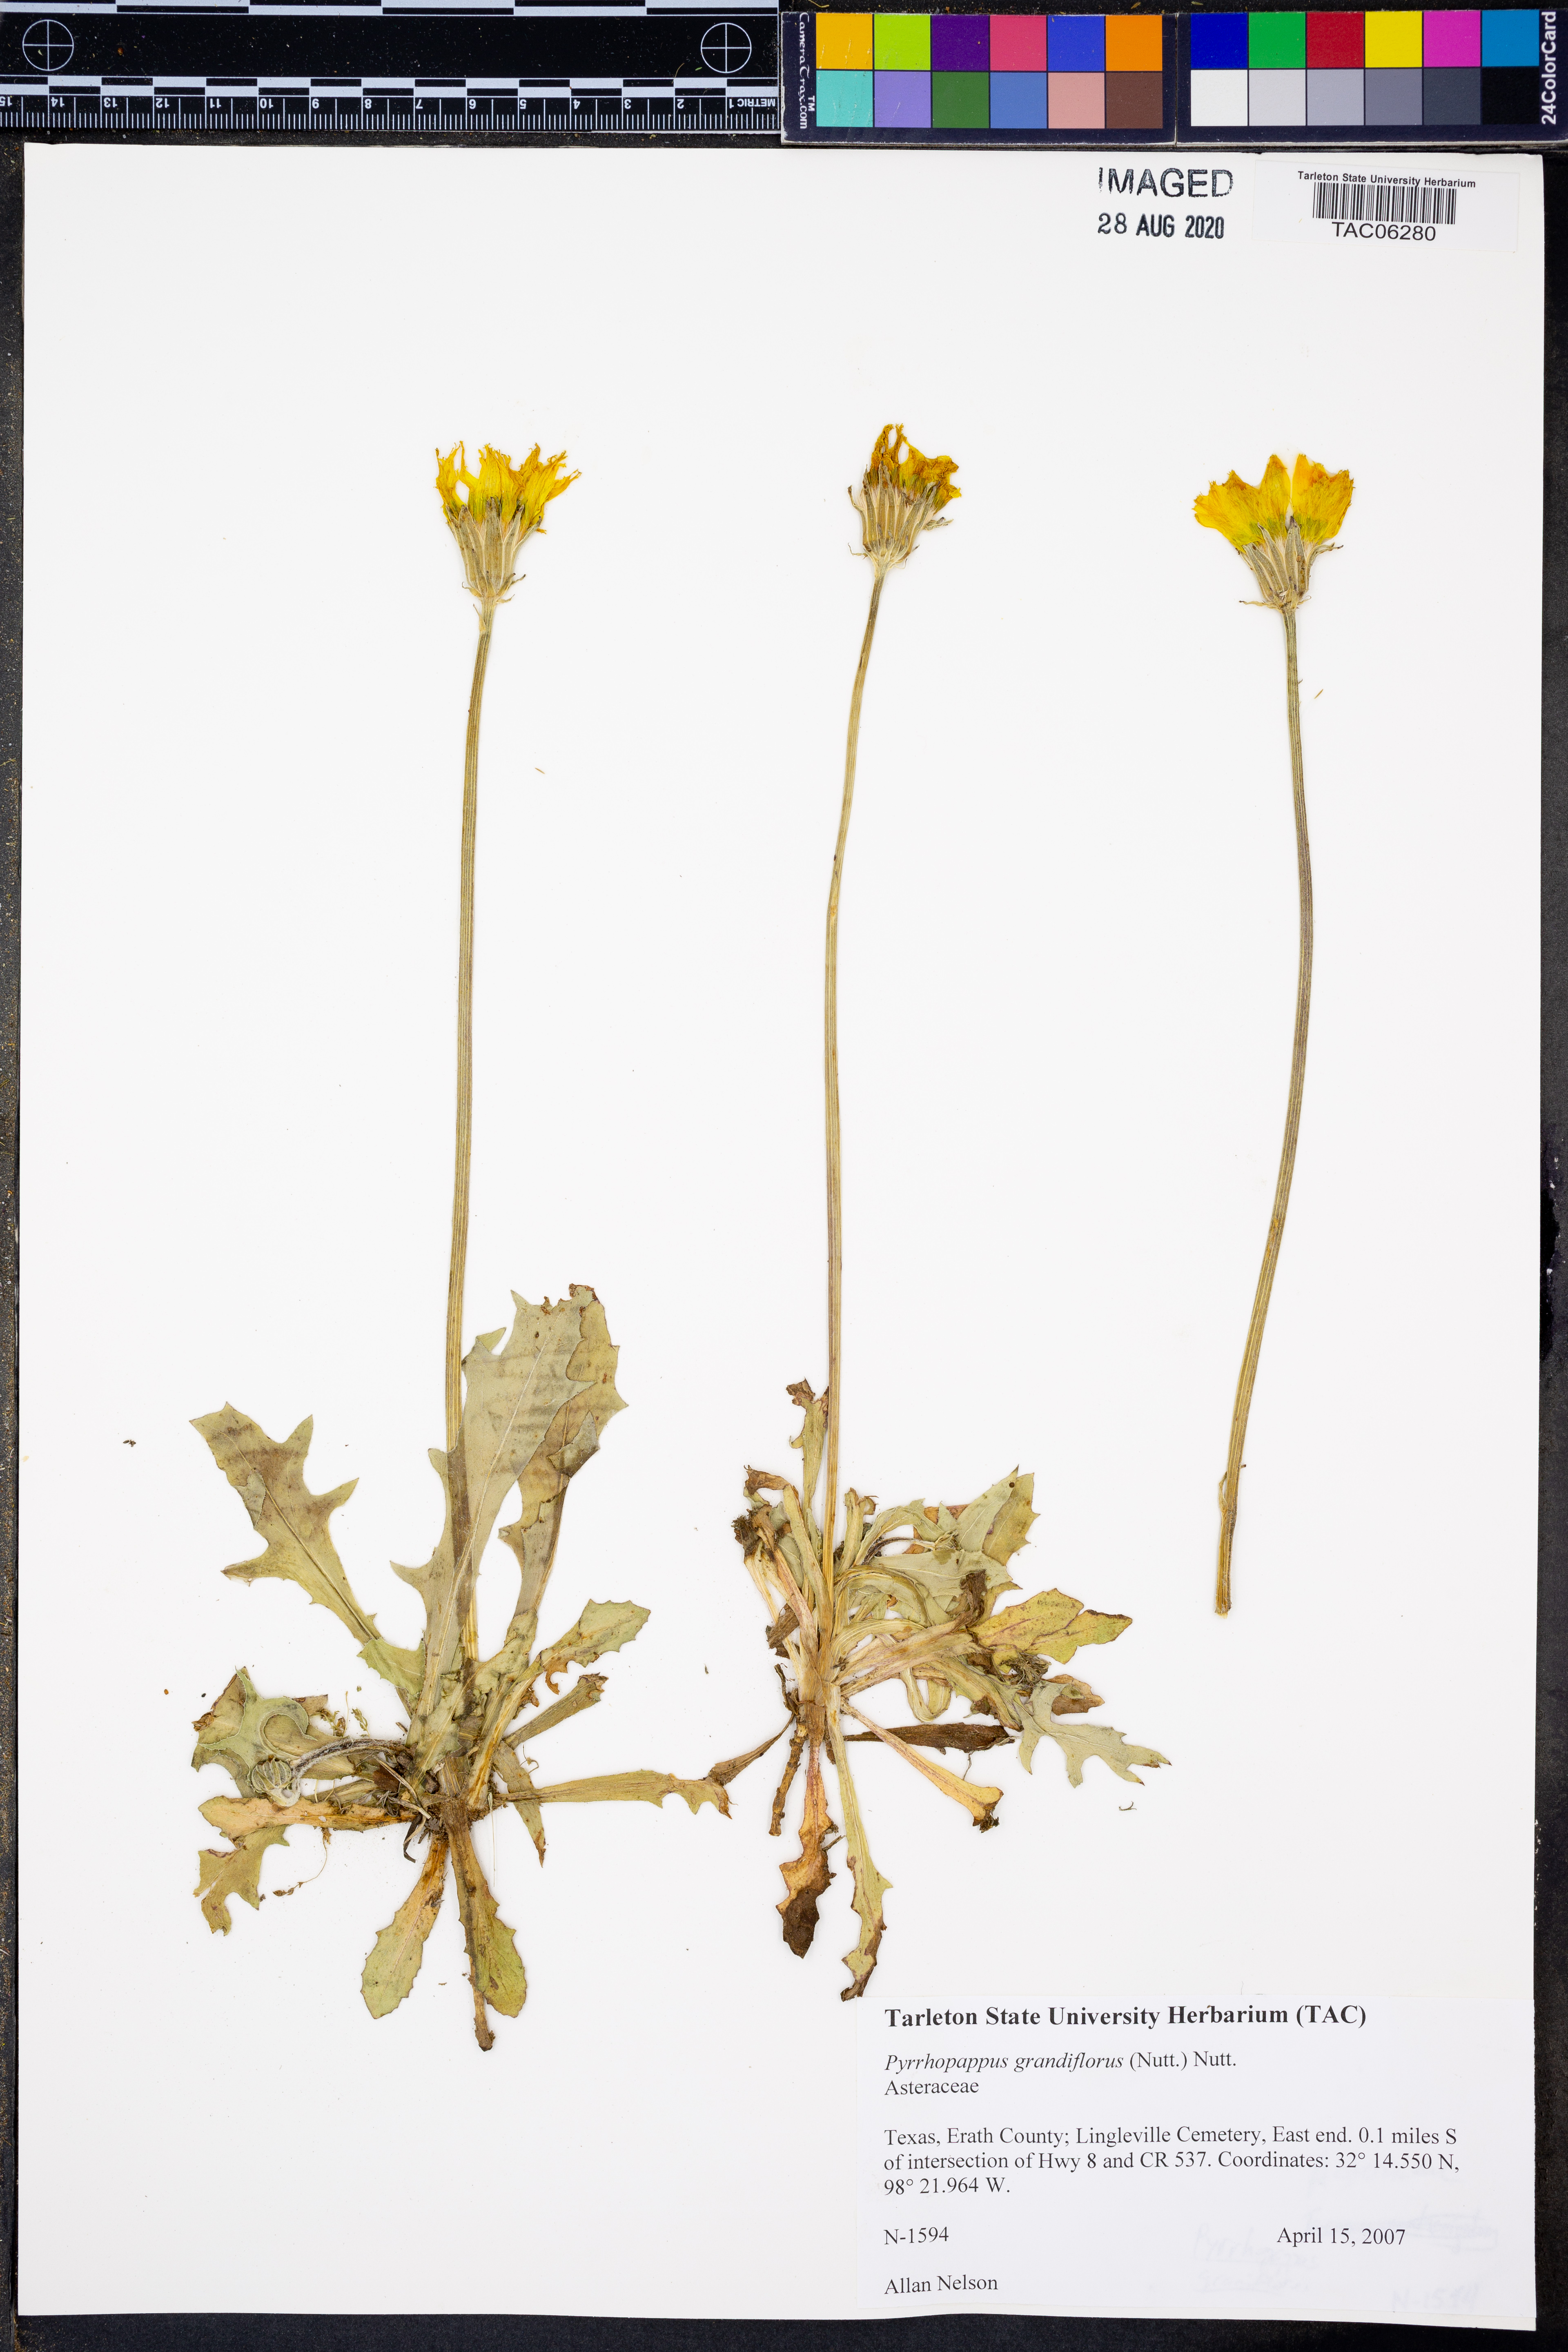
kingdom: Plantae
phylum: Tracheophyta
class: Magnoliopsida
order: Asterales
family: Asteraceae
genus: Pyrrhopappus
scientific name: Pyrrhopappus grandiflorus
